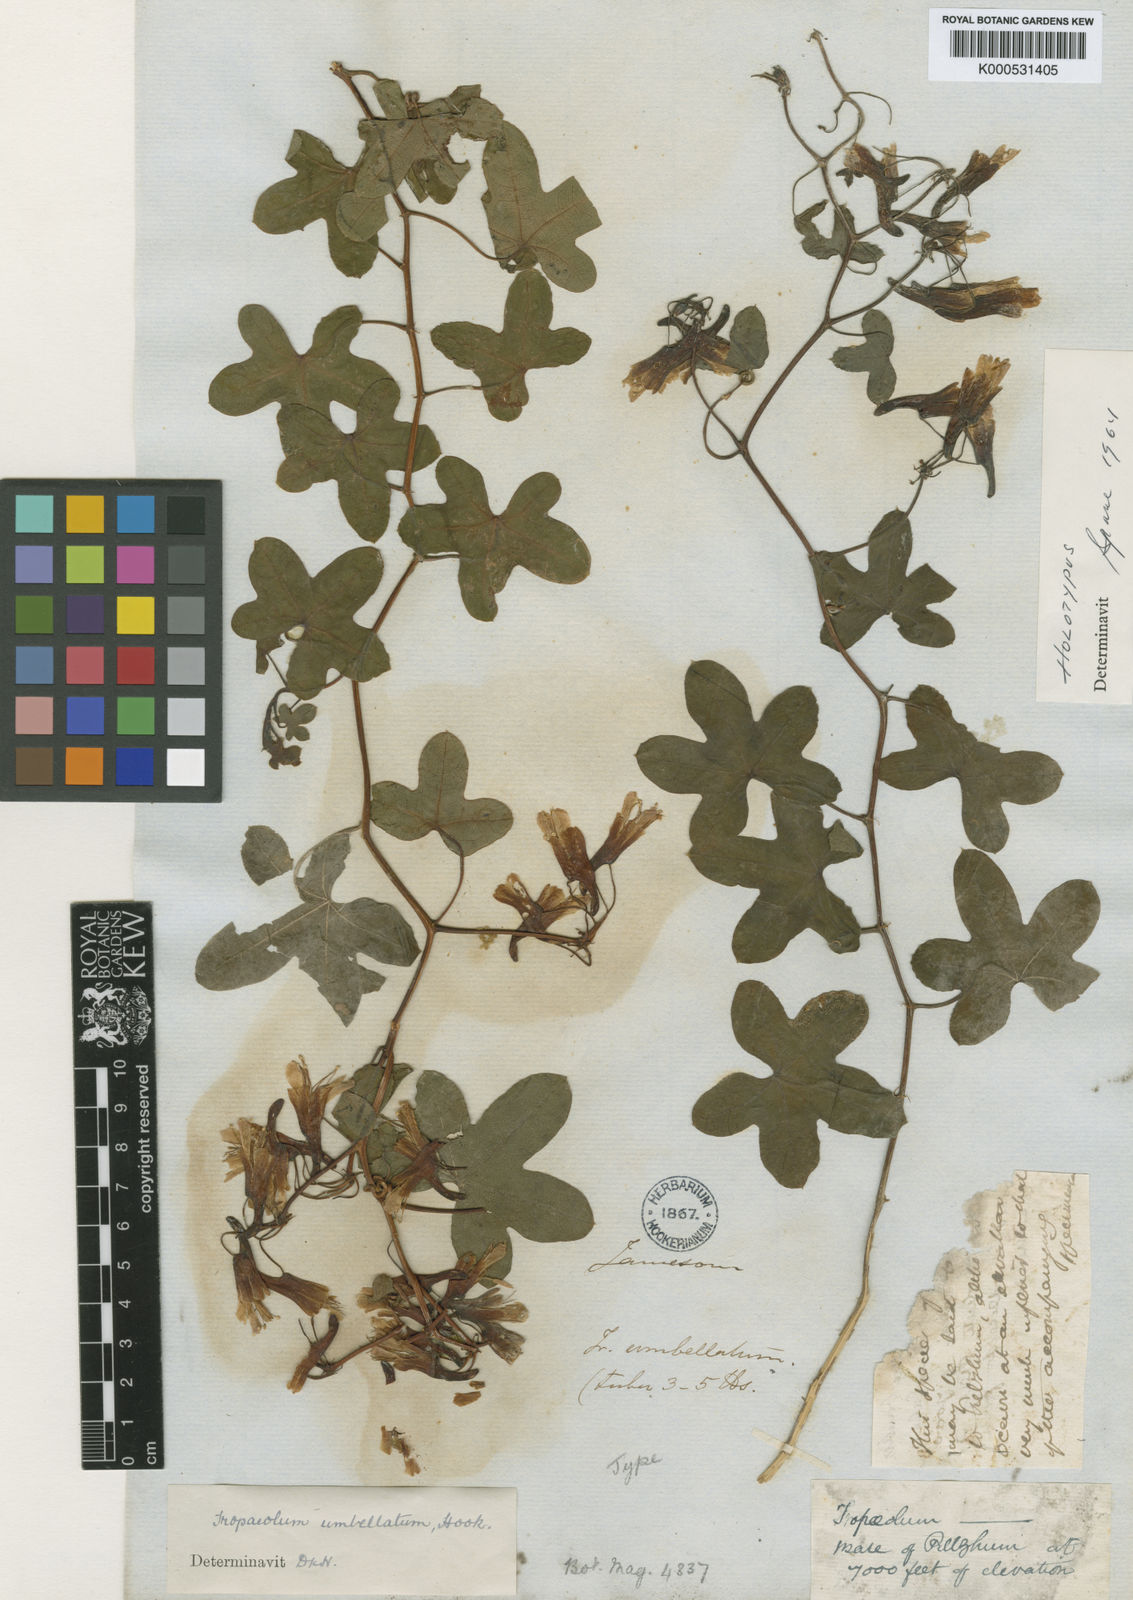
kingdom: Plantae
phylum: Tracheophyta
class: Magnoliopsida
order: Brassicales
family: Tropaeolaceae
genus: Tropaeolum
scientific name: Tropaeolum umbellatum
